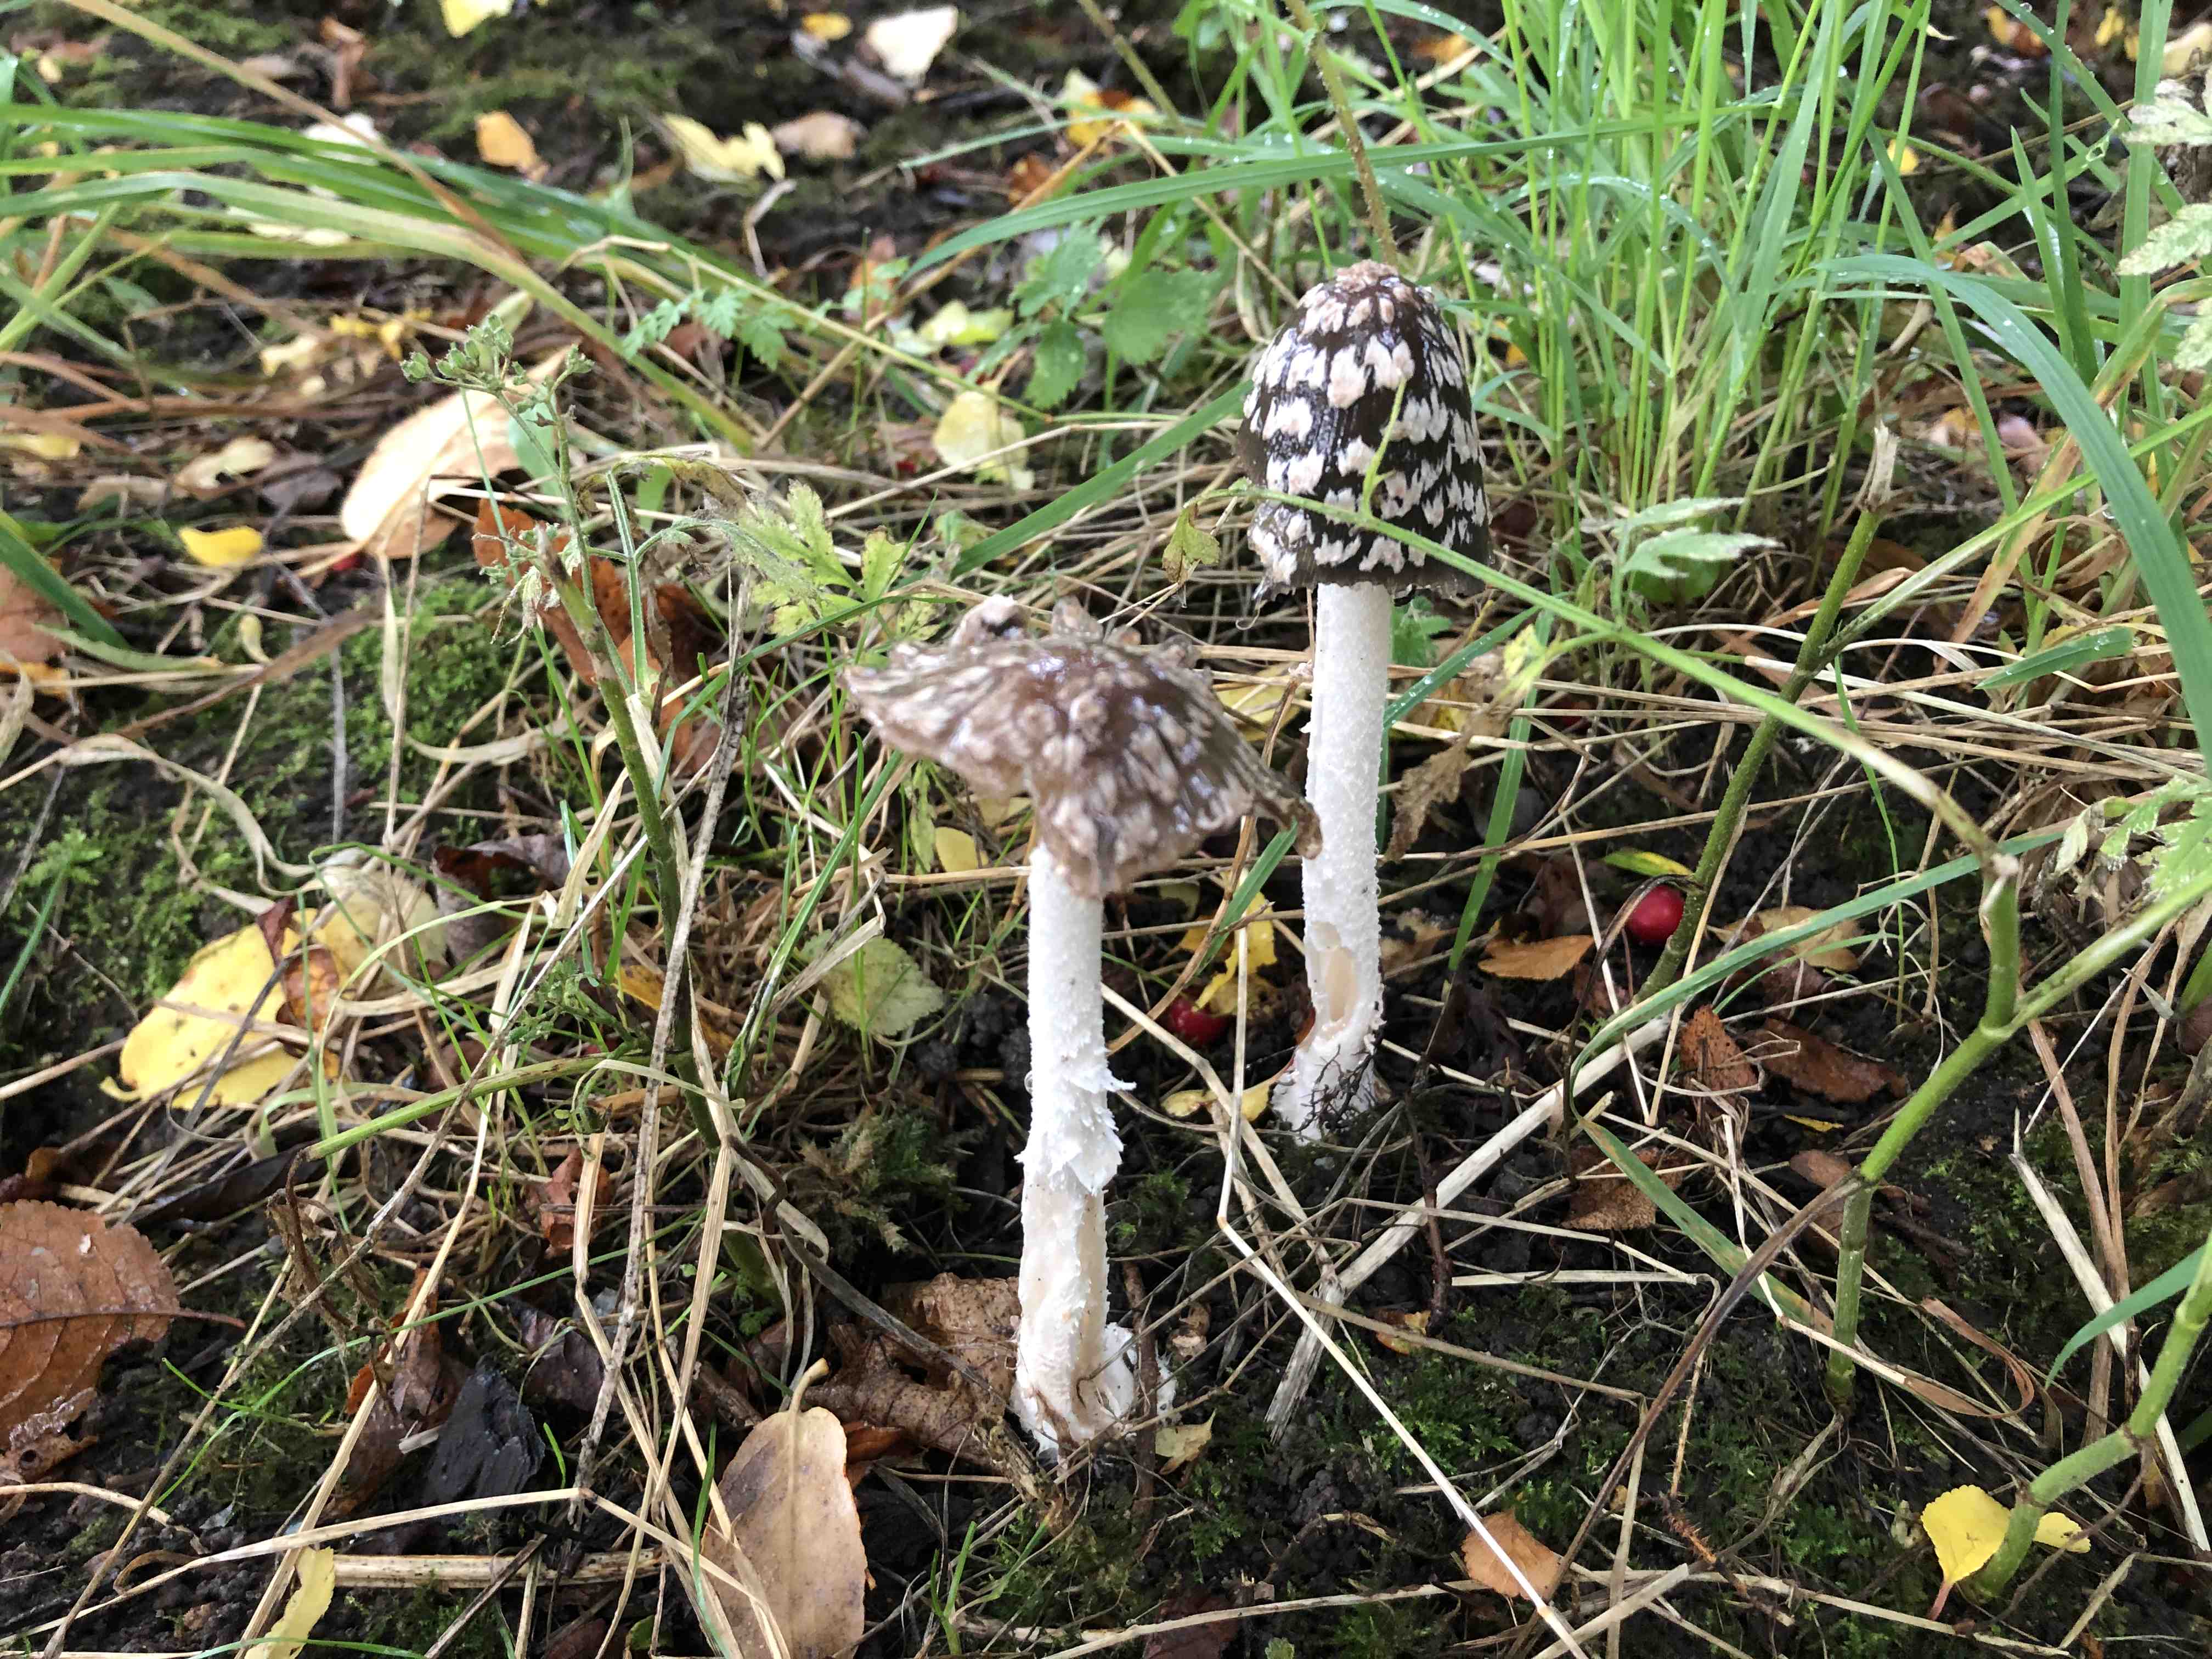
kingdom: Fungi
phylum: Basidiomycota
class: Agaricomycetes
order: Agaricales
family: Psathyrellaceae
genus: Coprinopsis
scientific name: Coprinopsis picacea
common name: skade-blækhat
